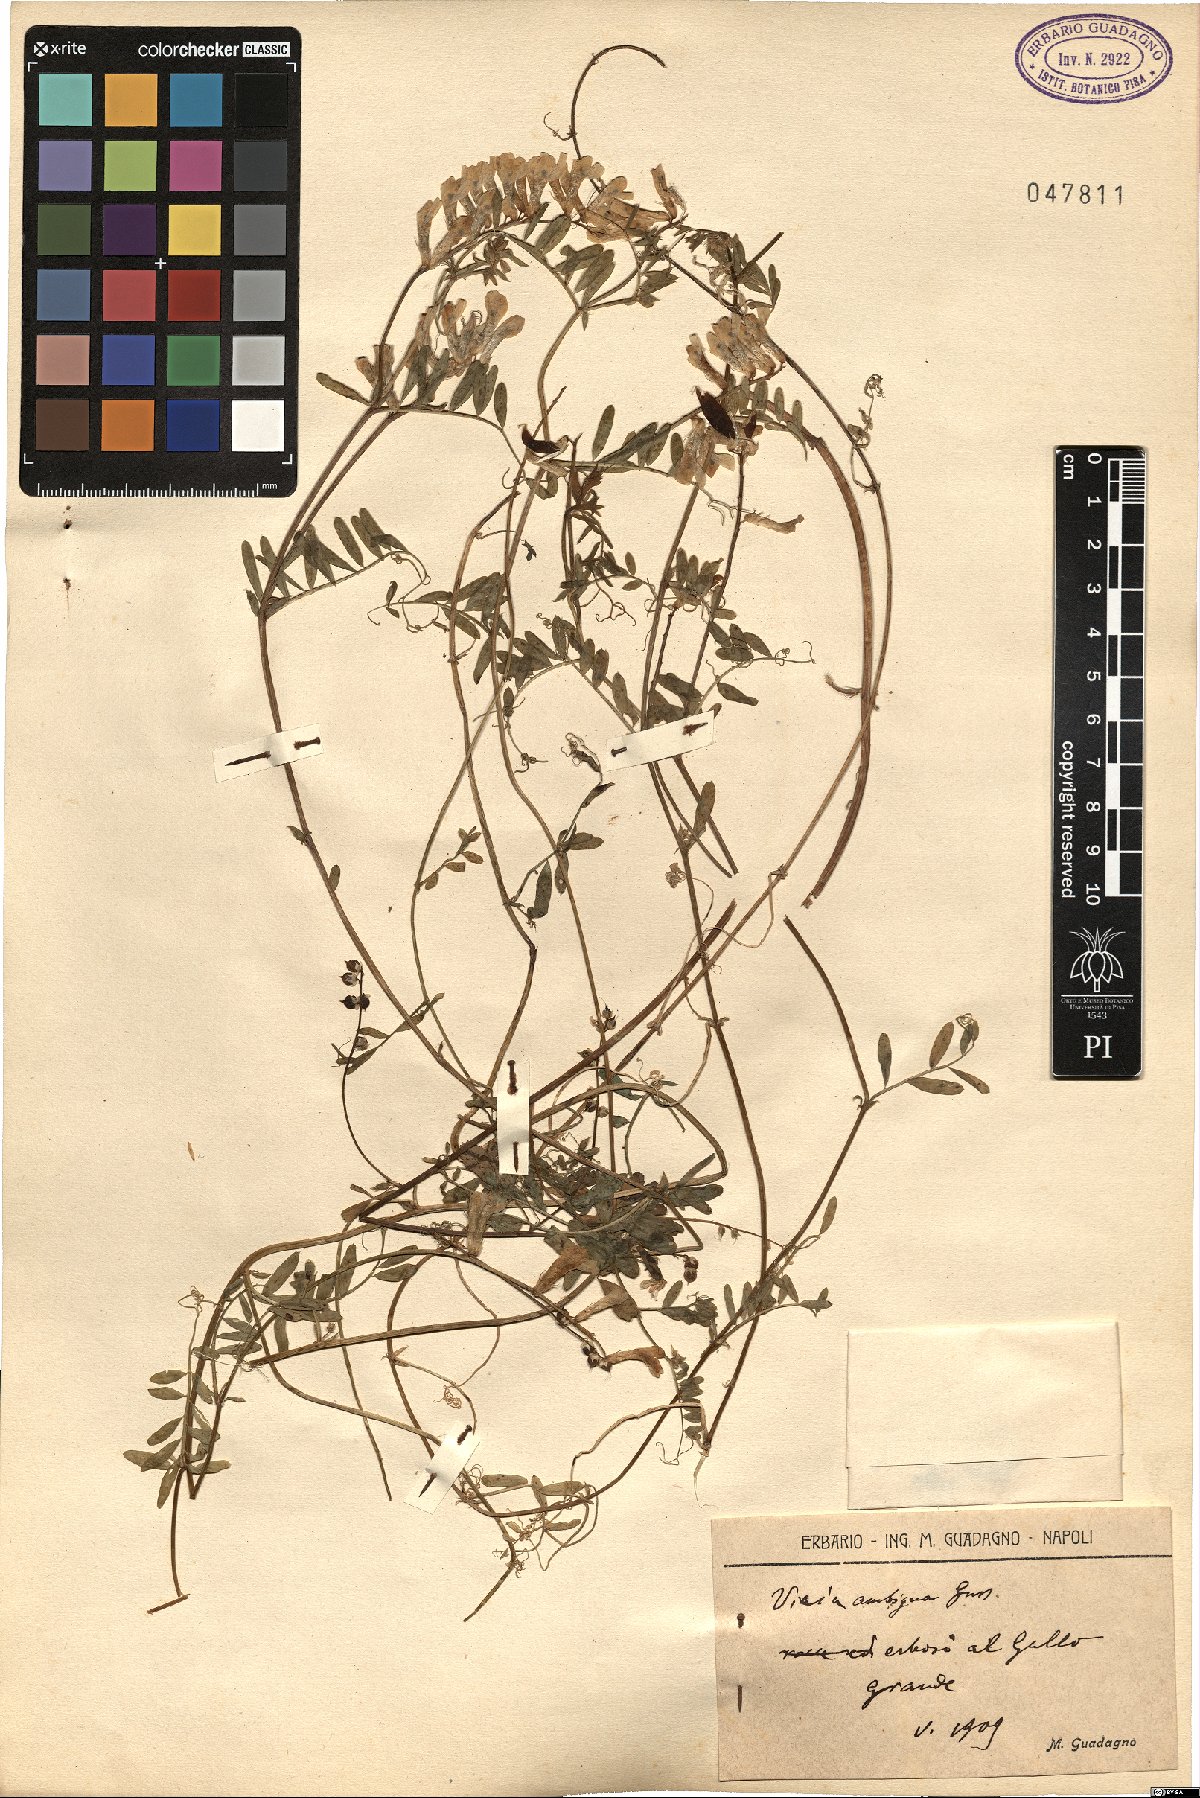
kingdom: Plantae
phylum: Tracheophyta
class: Magnoliopsida
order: Fabales
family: Fabaceae
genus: Vicia
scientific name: Vicia villosa
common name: Fodder vetch
